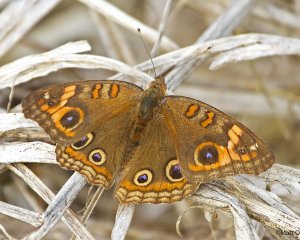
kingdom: Animalia
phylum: Arthropoda
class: Insecta
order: Lepidoptera
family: Nymphalidae
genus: Junonia
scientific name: Junonia evarete
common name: Mangrove Buckeye
